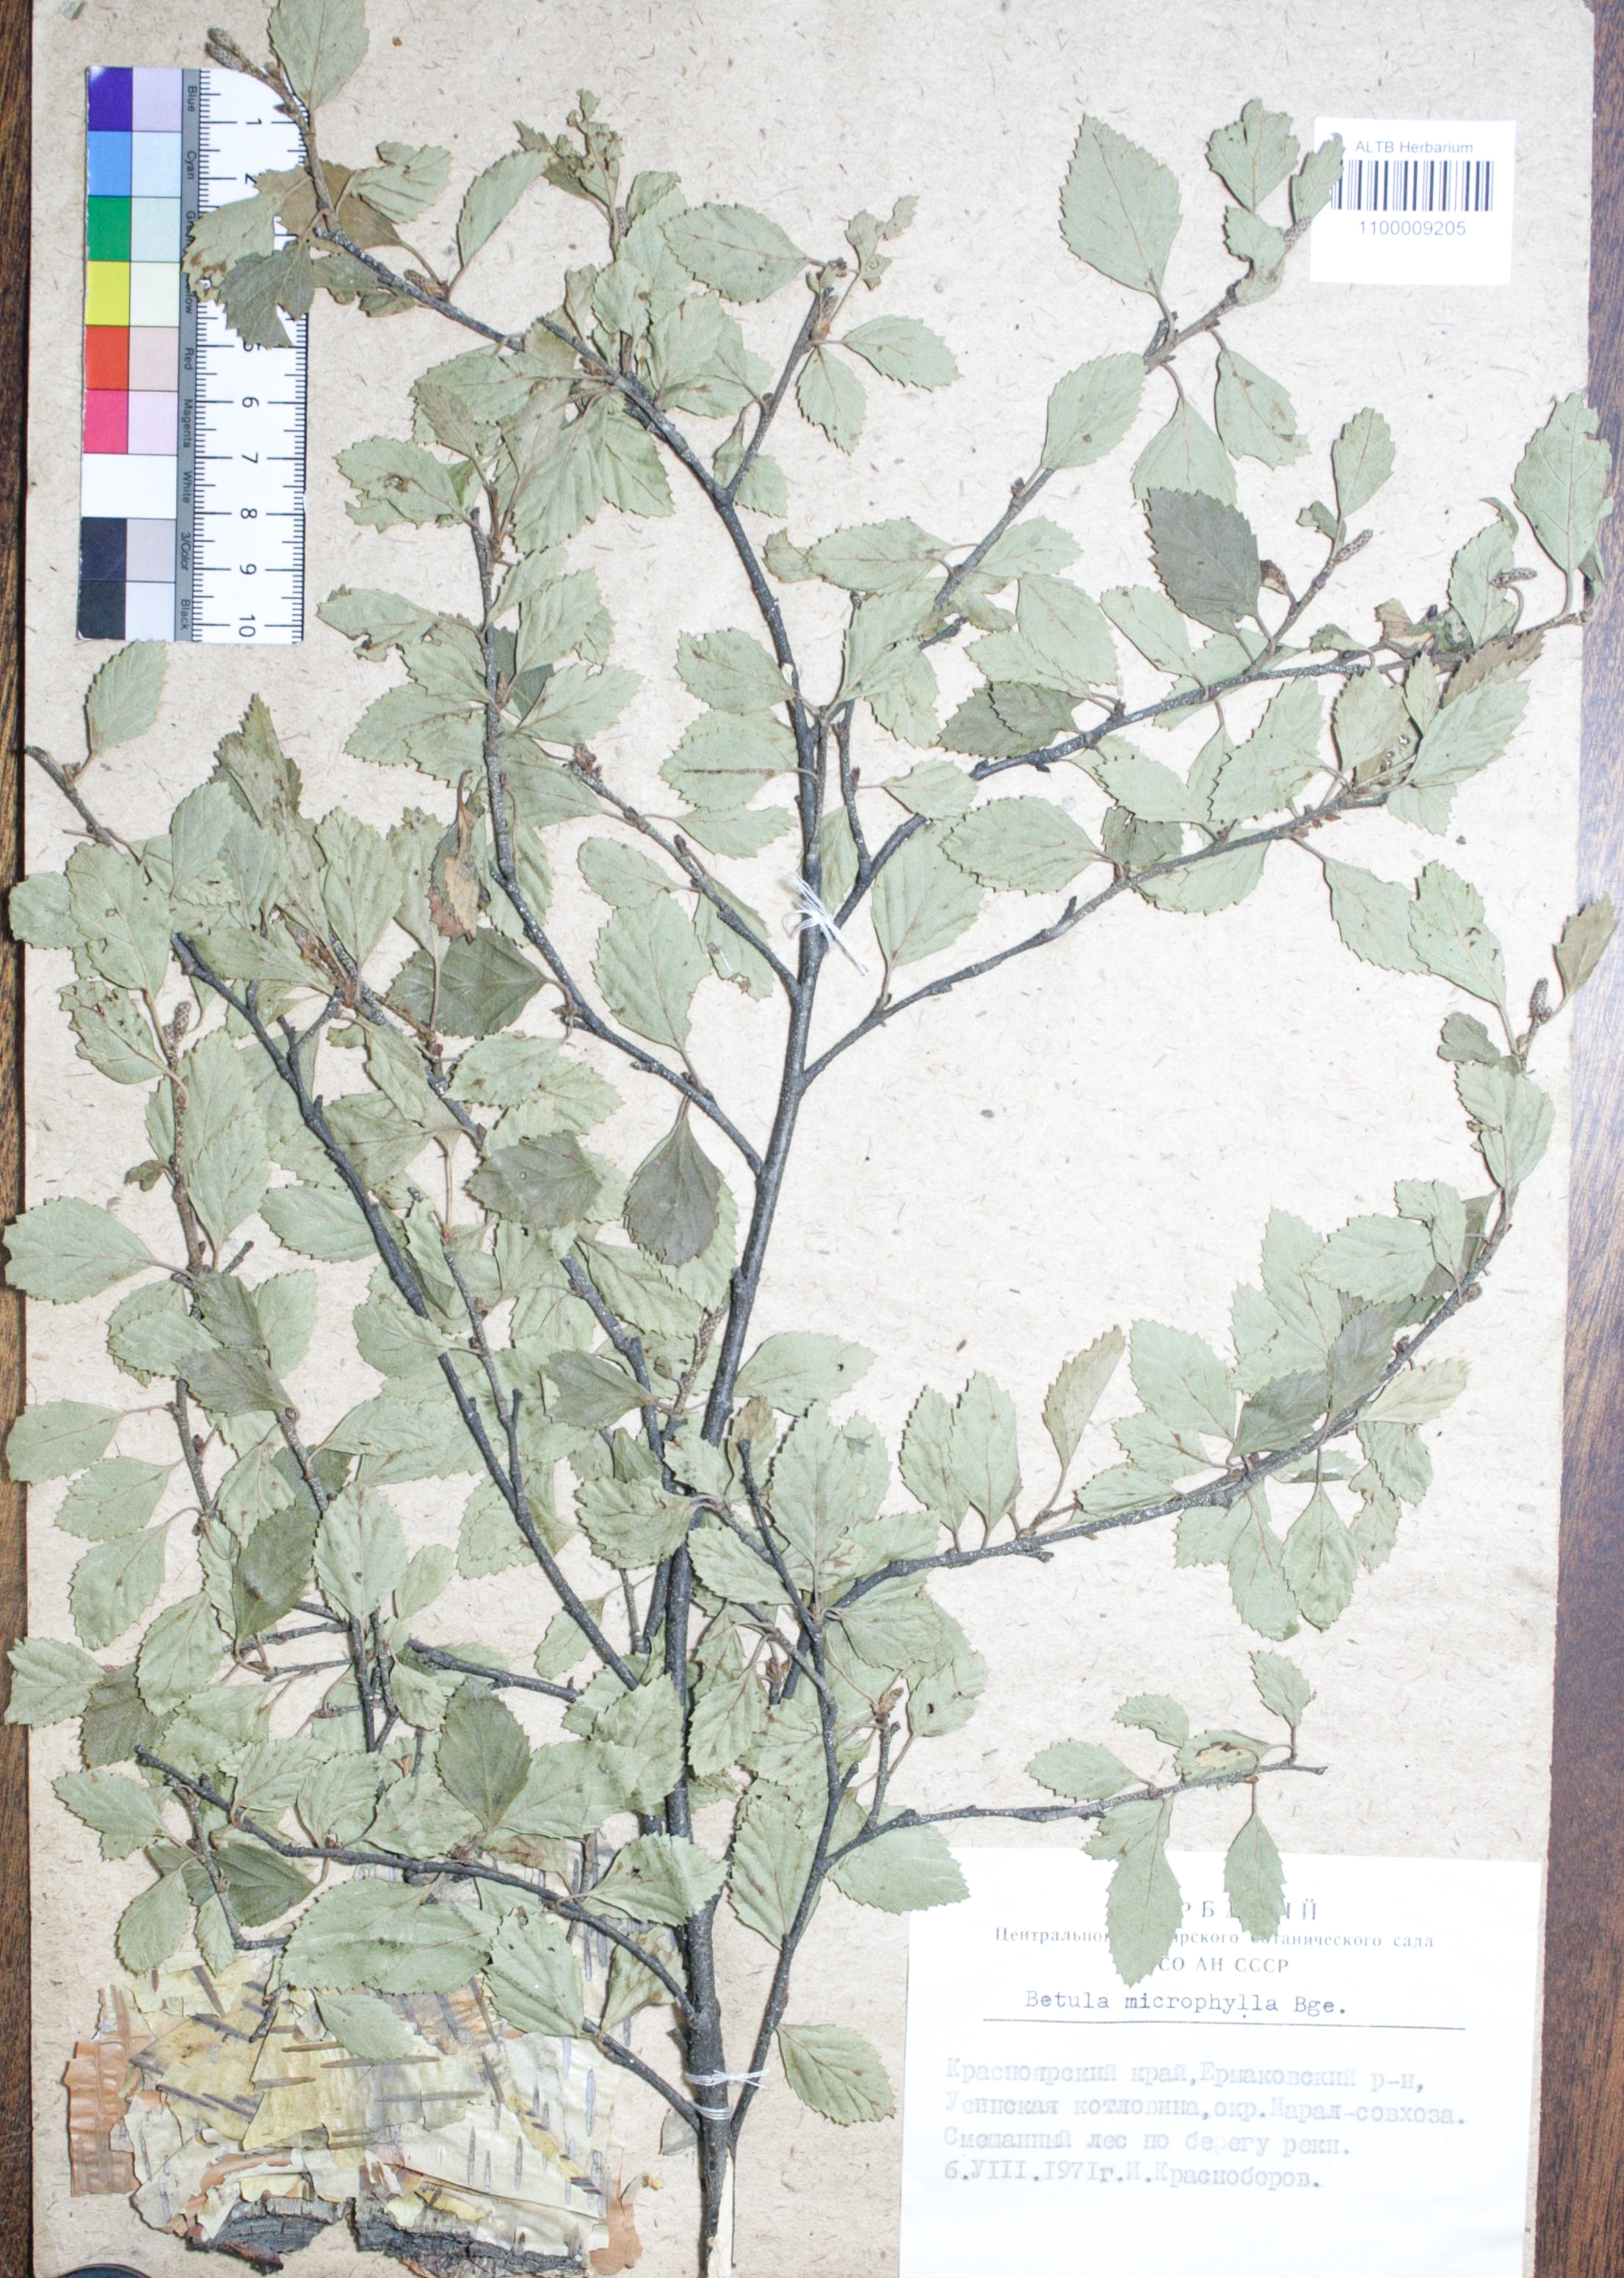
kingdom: Plantae
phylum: Tracheophyta
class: Magnoliopsida
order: Fagales
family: Betulaceae
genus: Betula
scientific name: Betula microphylla
